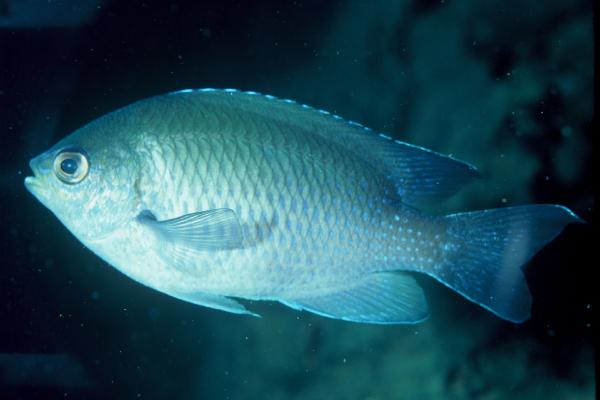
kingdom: Animalia
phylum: Chordata
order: Perciformes
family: Pomacentridae
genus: Chromis
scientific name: Chromis dasygenys
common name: Blue-spotted chromis
